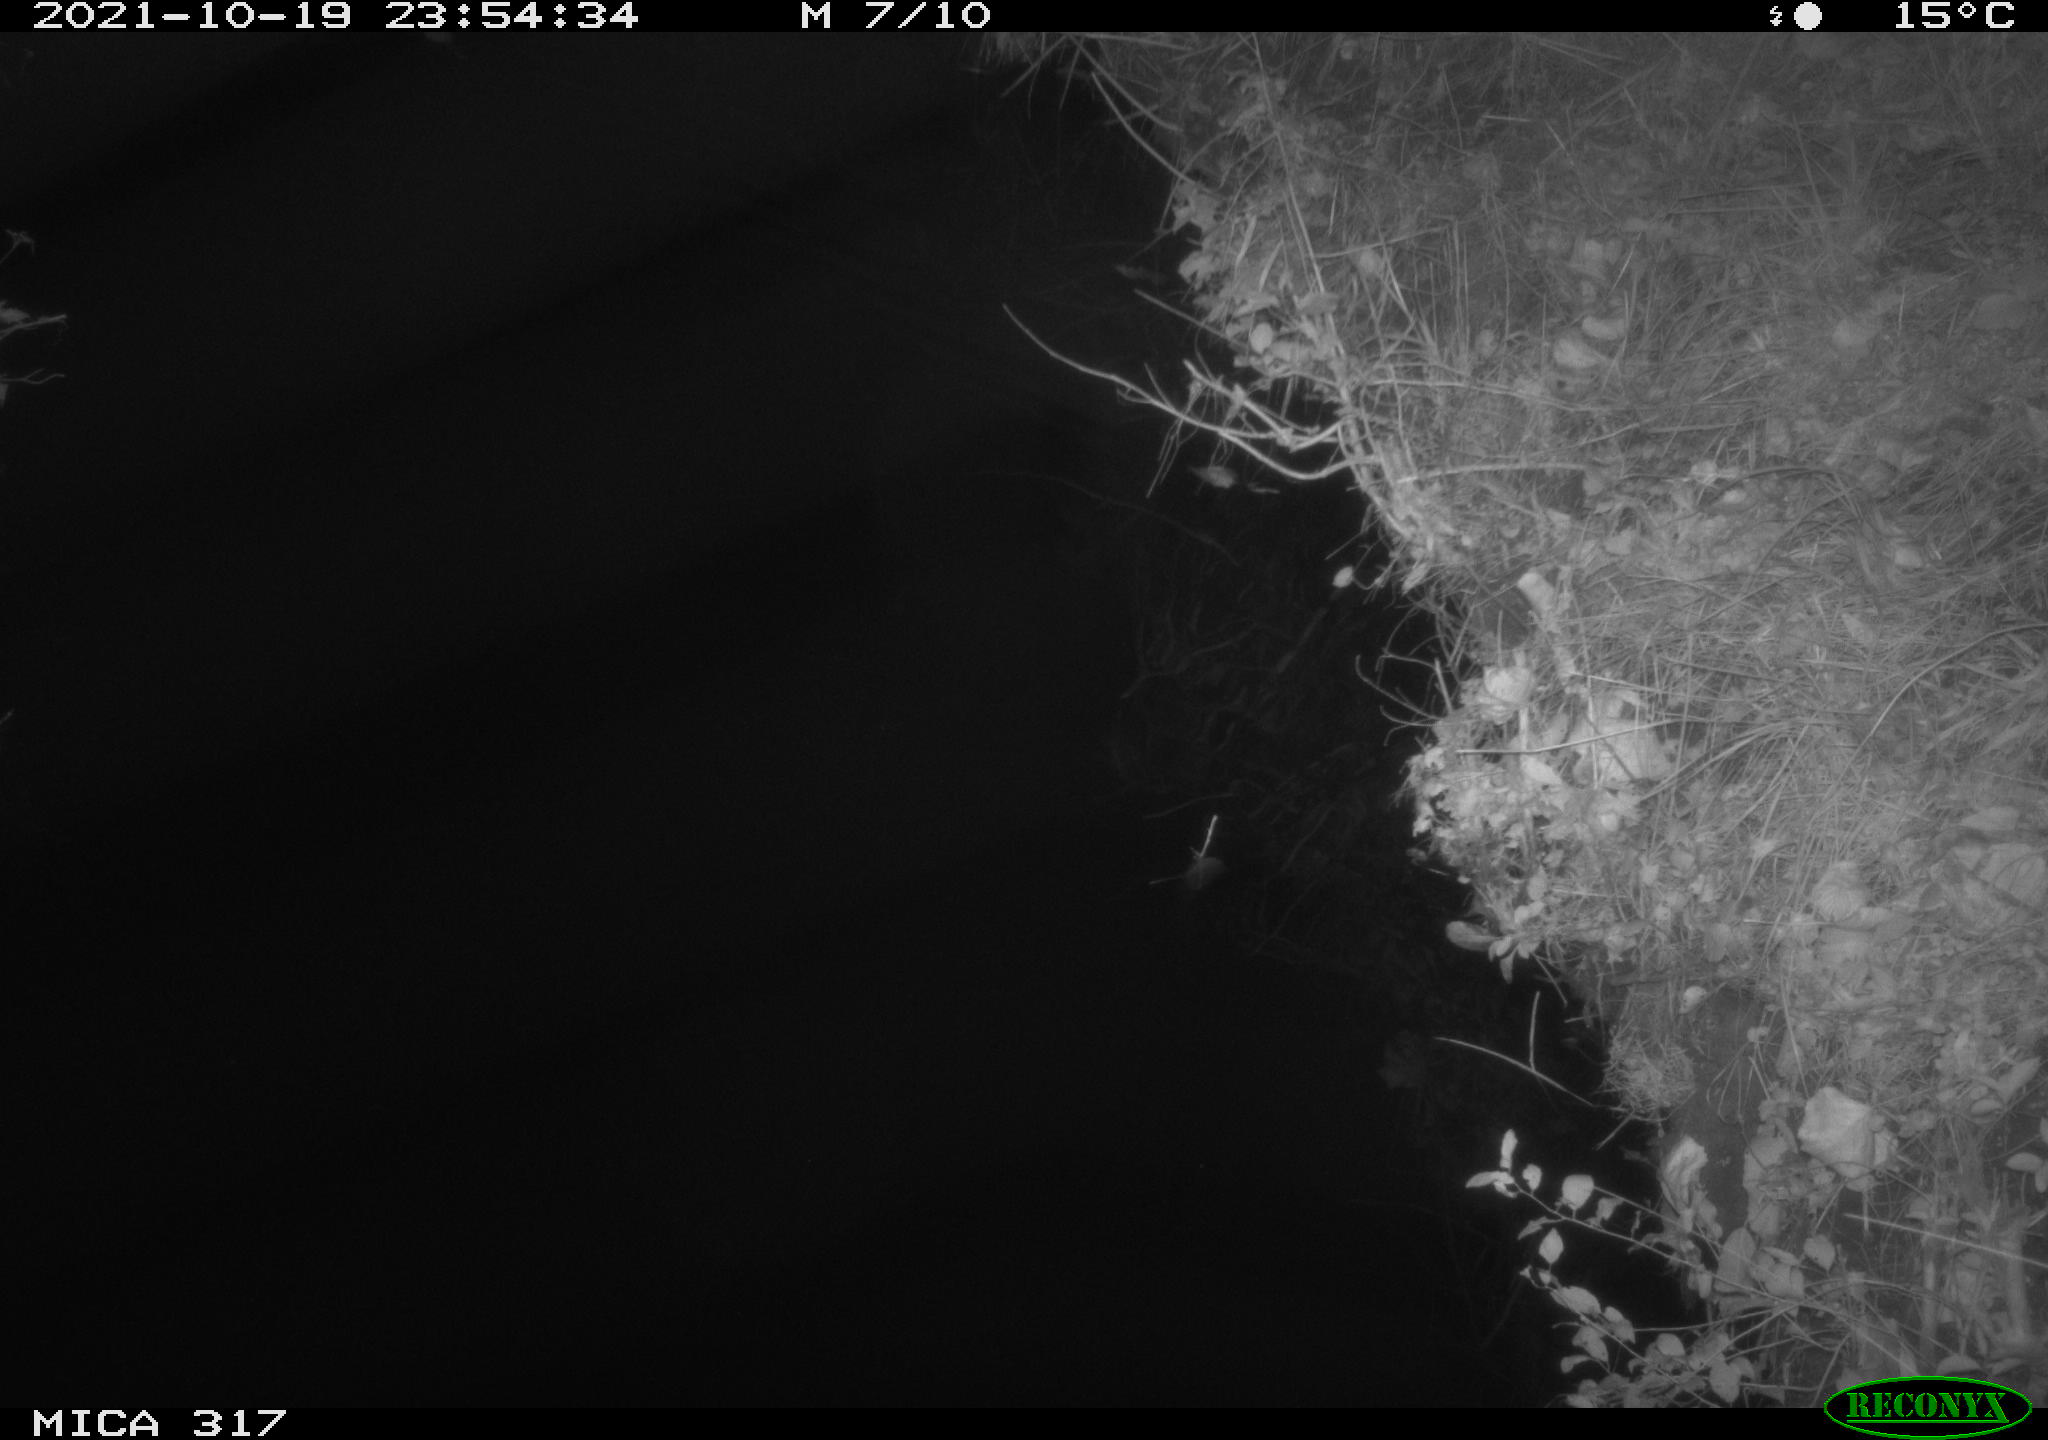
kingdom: Animalia
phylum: Chordata
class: Mammalia
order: Rodentia
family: Muridae
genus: Rattus
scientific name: Rattus norvegicus
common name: Brown rat
